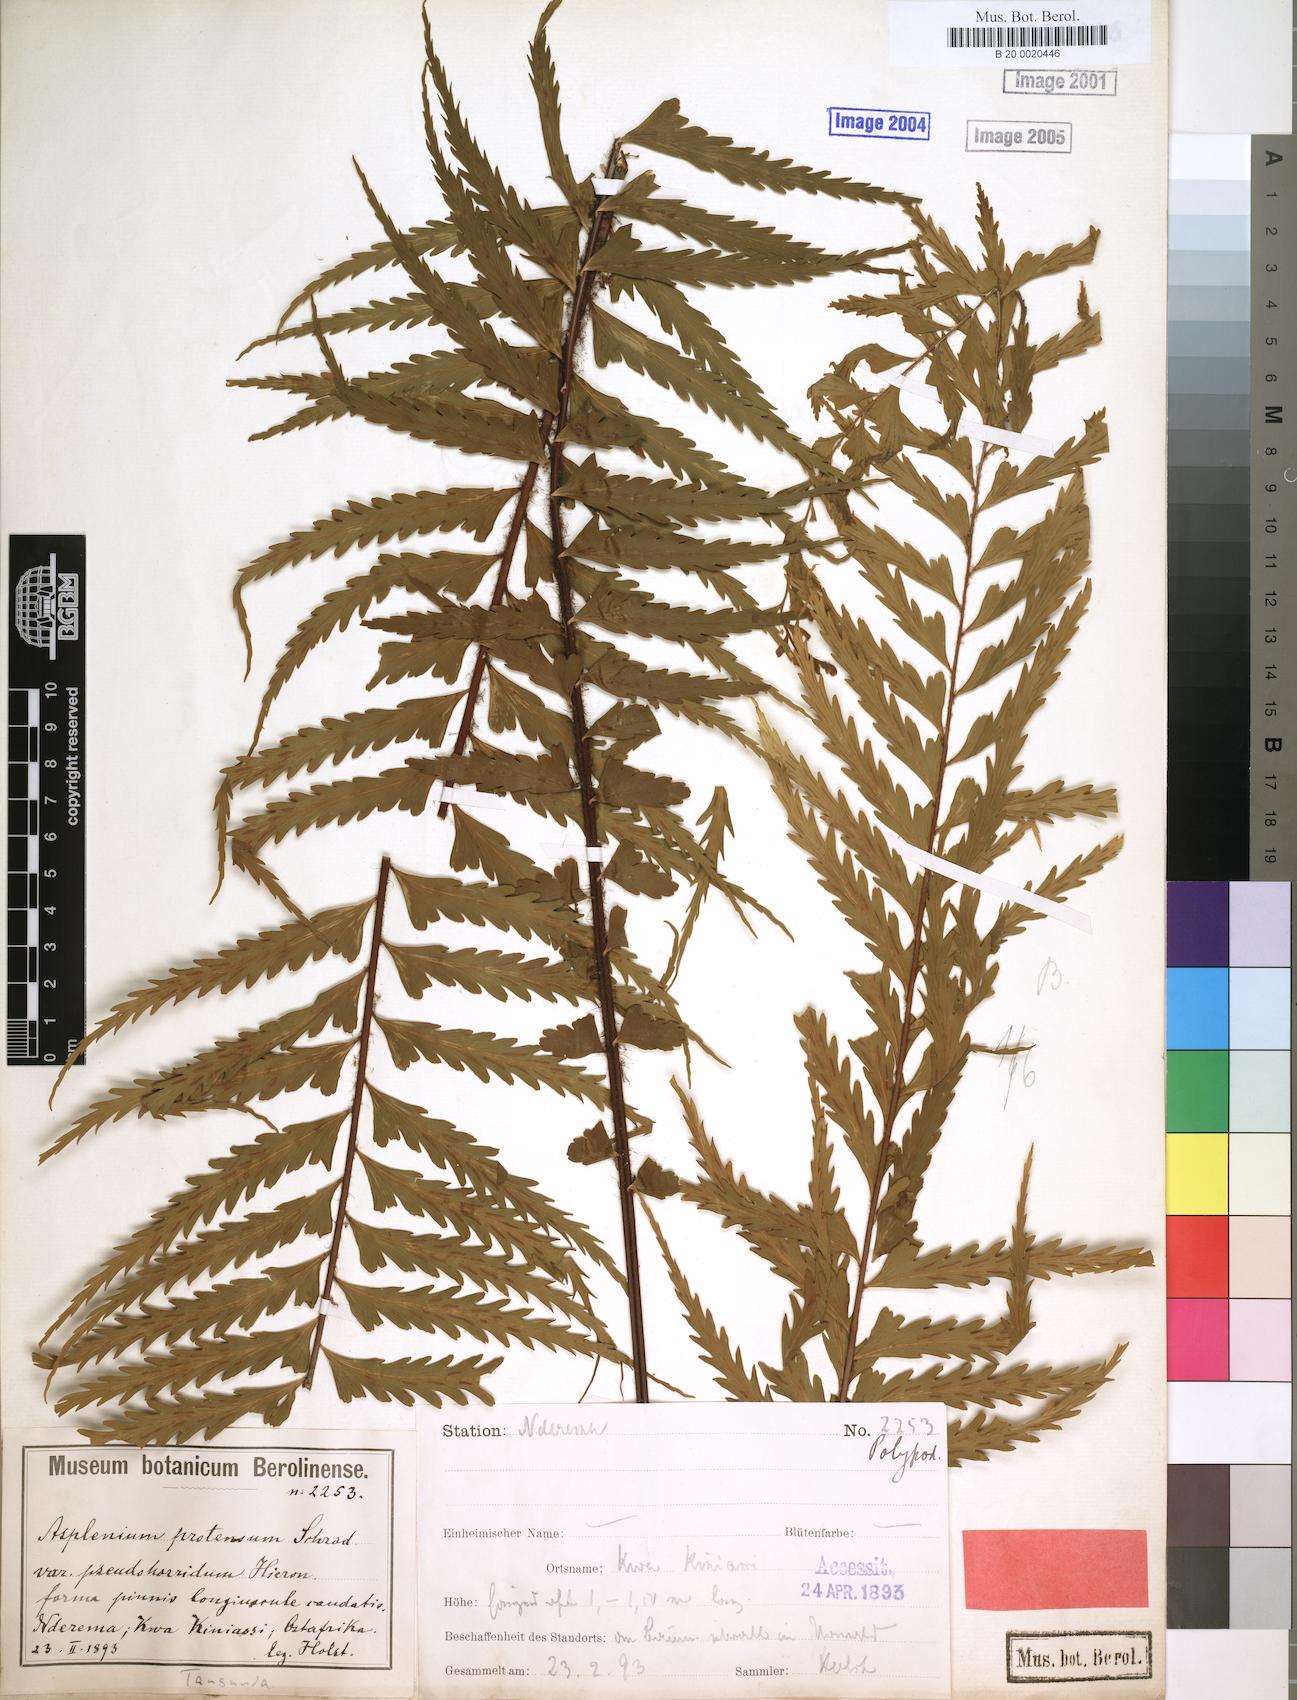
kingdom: Plantae
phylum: Tracheophyta
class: Polypodiopsida
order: Polypodiales
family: Aspleniaceae
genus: Asplenium
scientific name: Asplenium pellucidum
